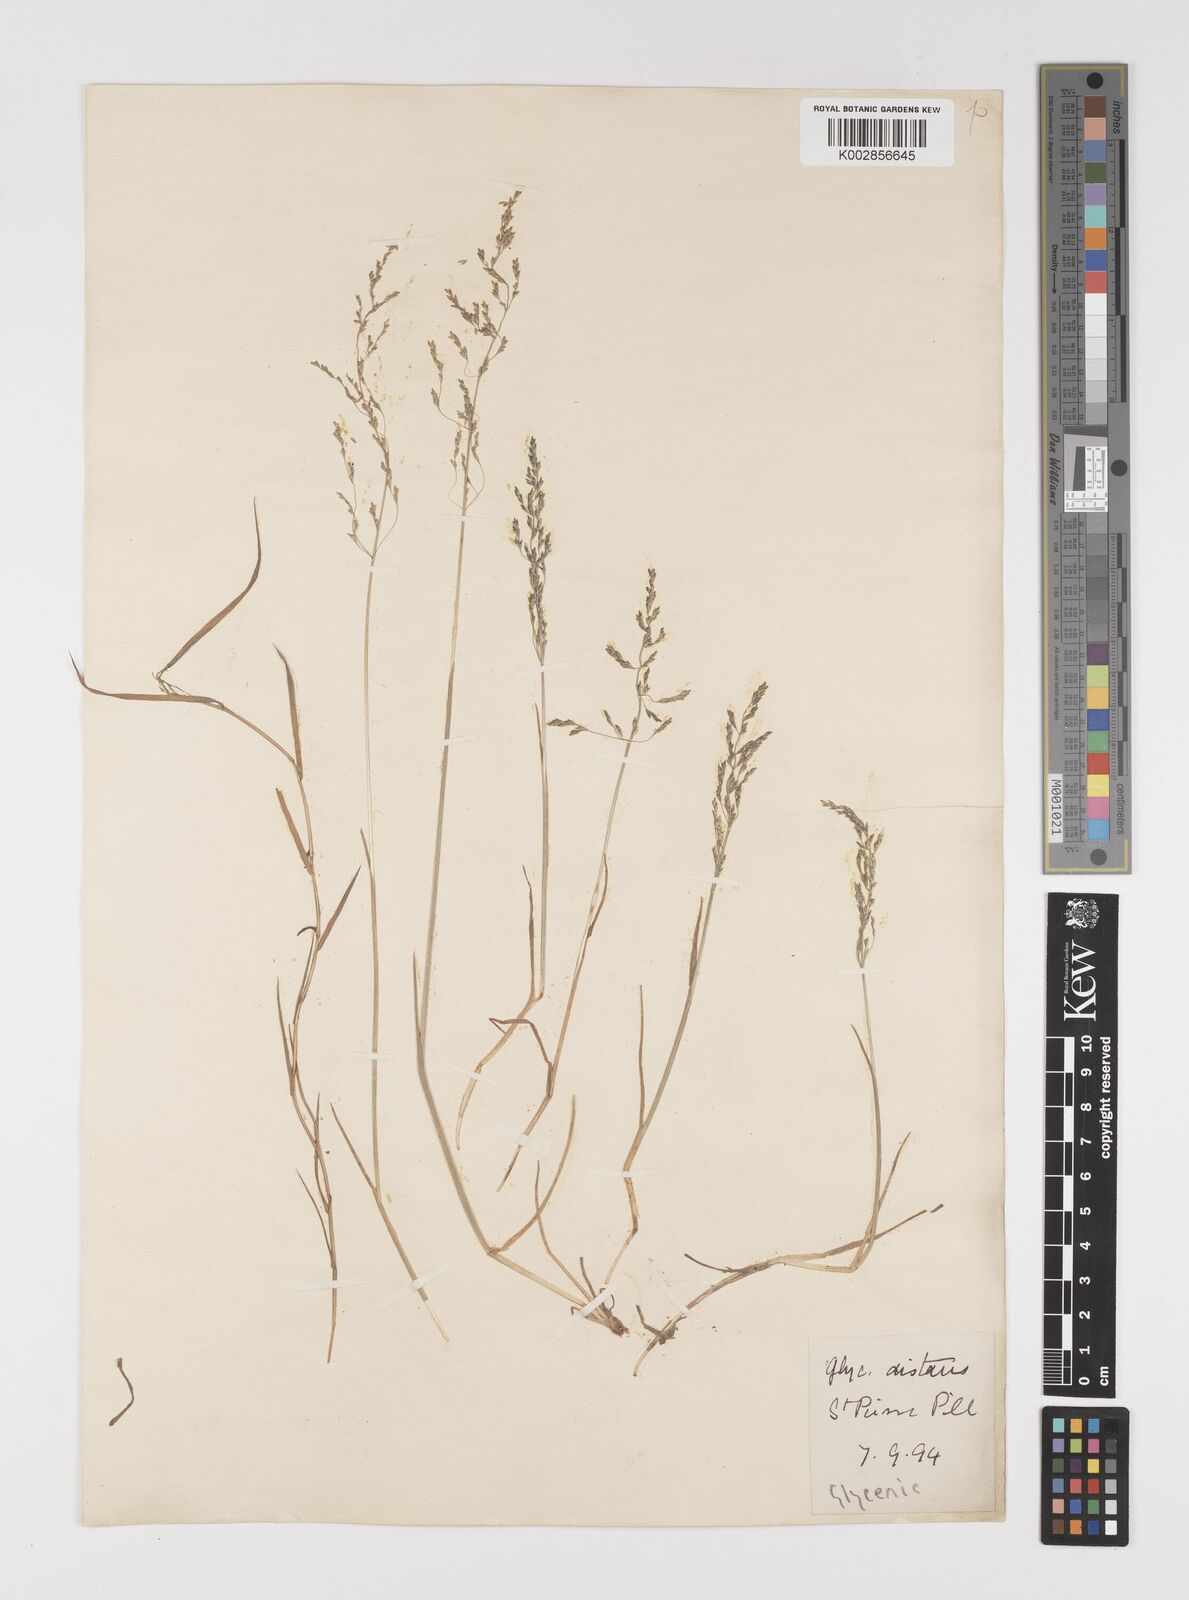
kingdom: Plantae
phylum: Tracheophyta
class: Liliopsida
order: Poales
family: Poaceae
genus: Puccinellia
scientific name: Puccinellia distans
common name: Weeping alkaligrass
